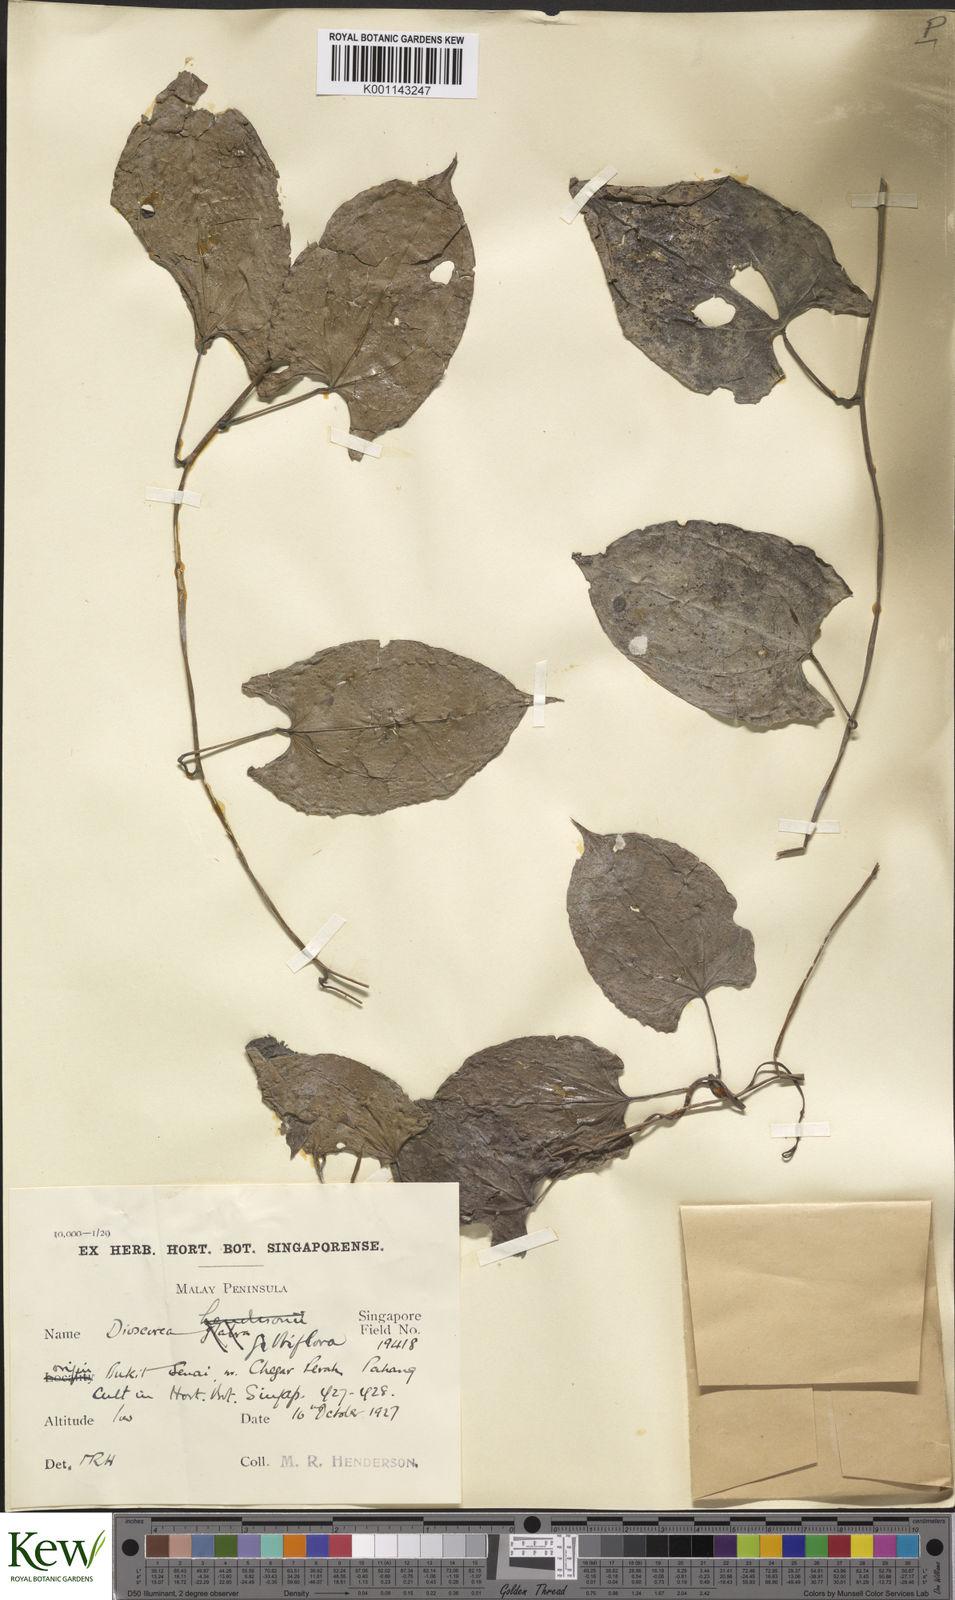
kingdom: Plantae
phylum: Tracheophyta
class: Liliopsida
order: Dioscoreales
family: Dioscoreaceae
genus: Dioscorea
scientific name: Dioscorea filiformis
